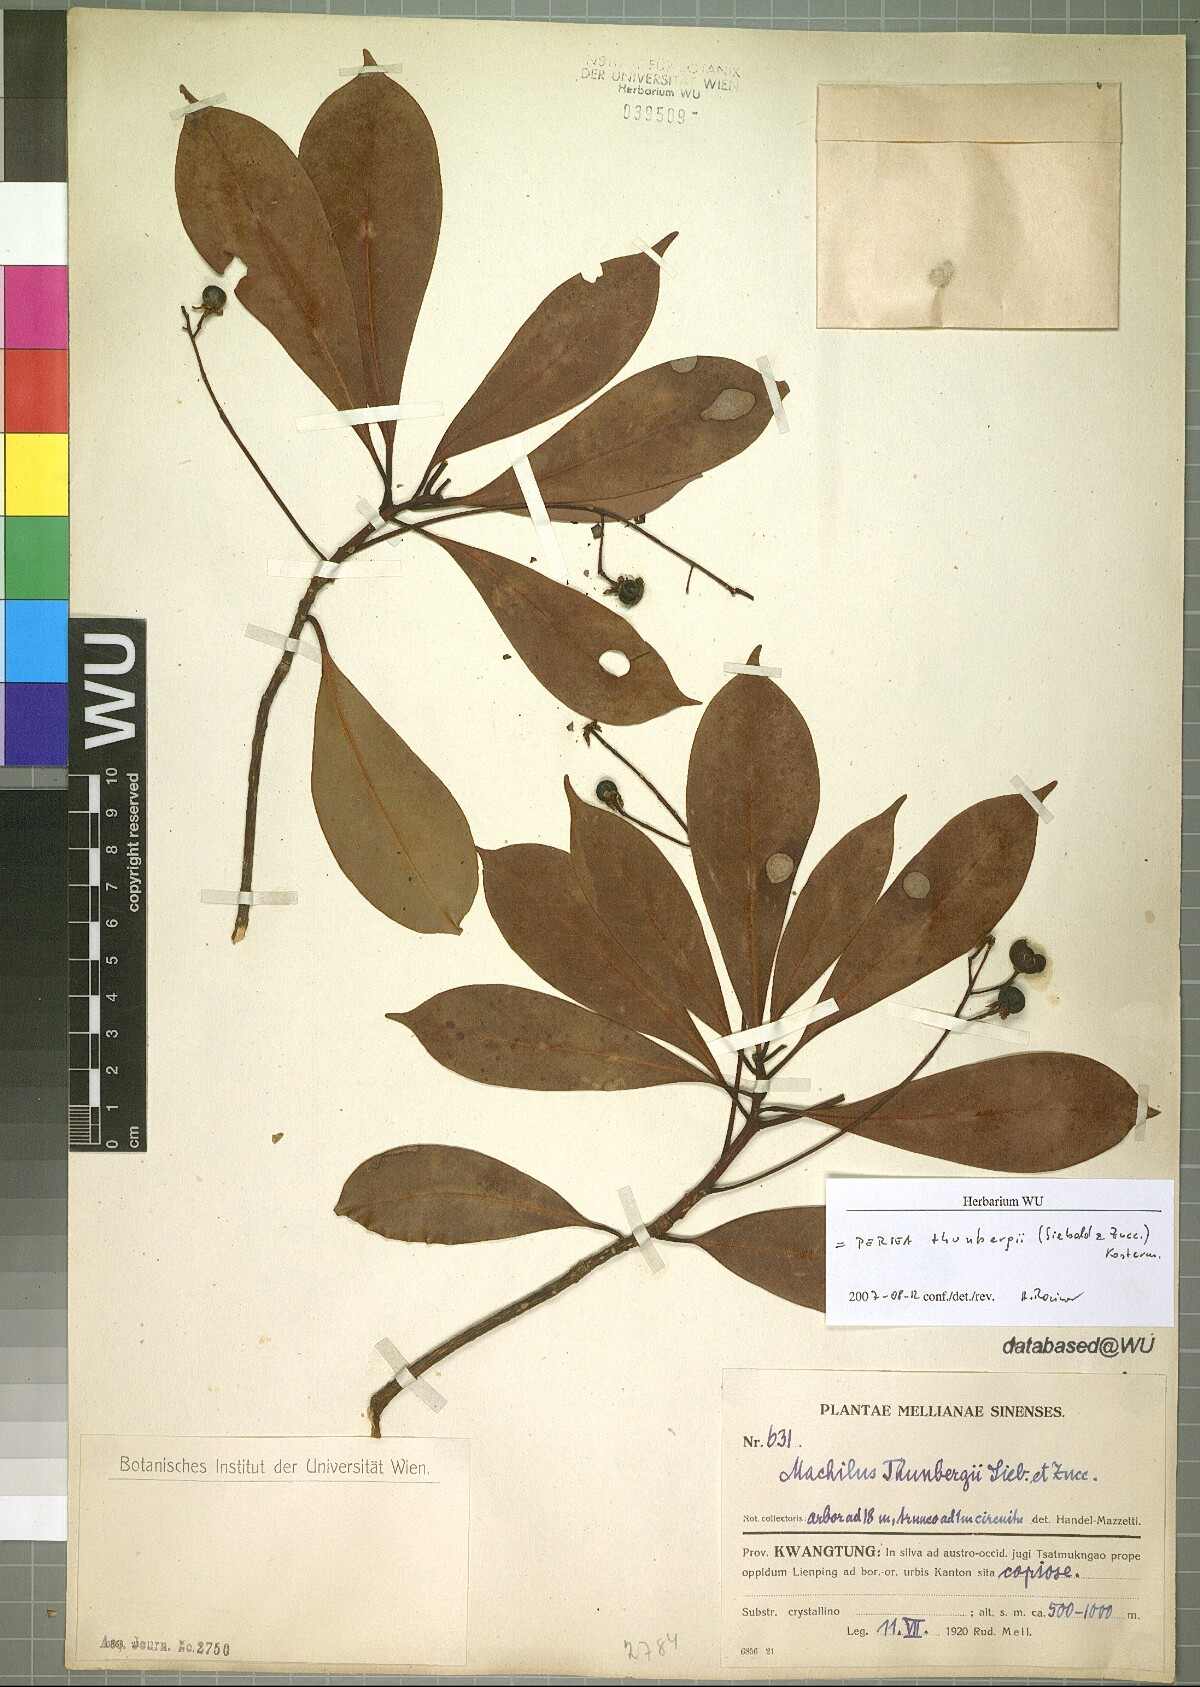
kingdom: Plantae
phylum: Tracheophyta
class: Magnoliopsida
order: Laurales
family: Lauraceae
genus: Machilus
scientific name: Machilus thunbergii
